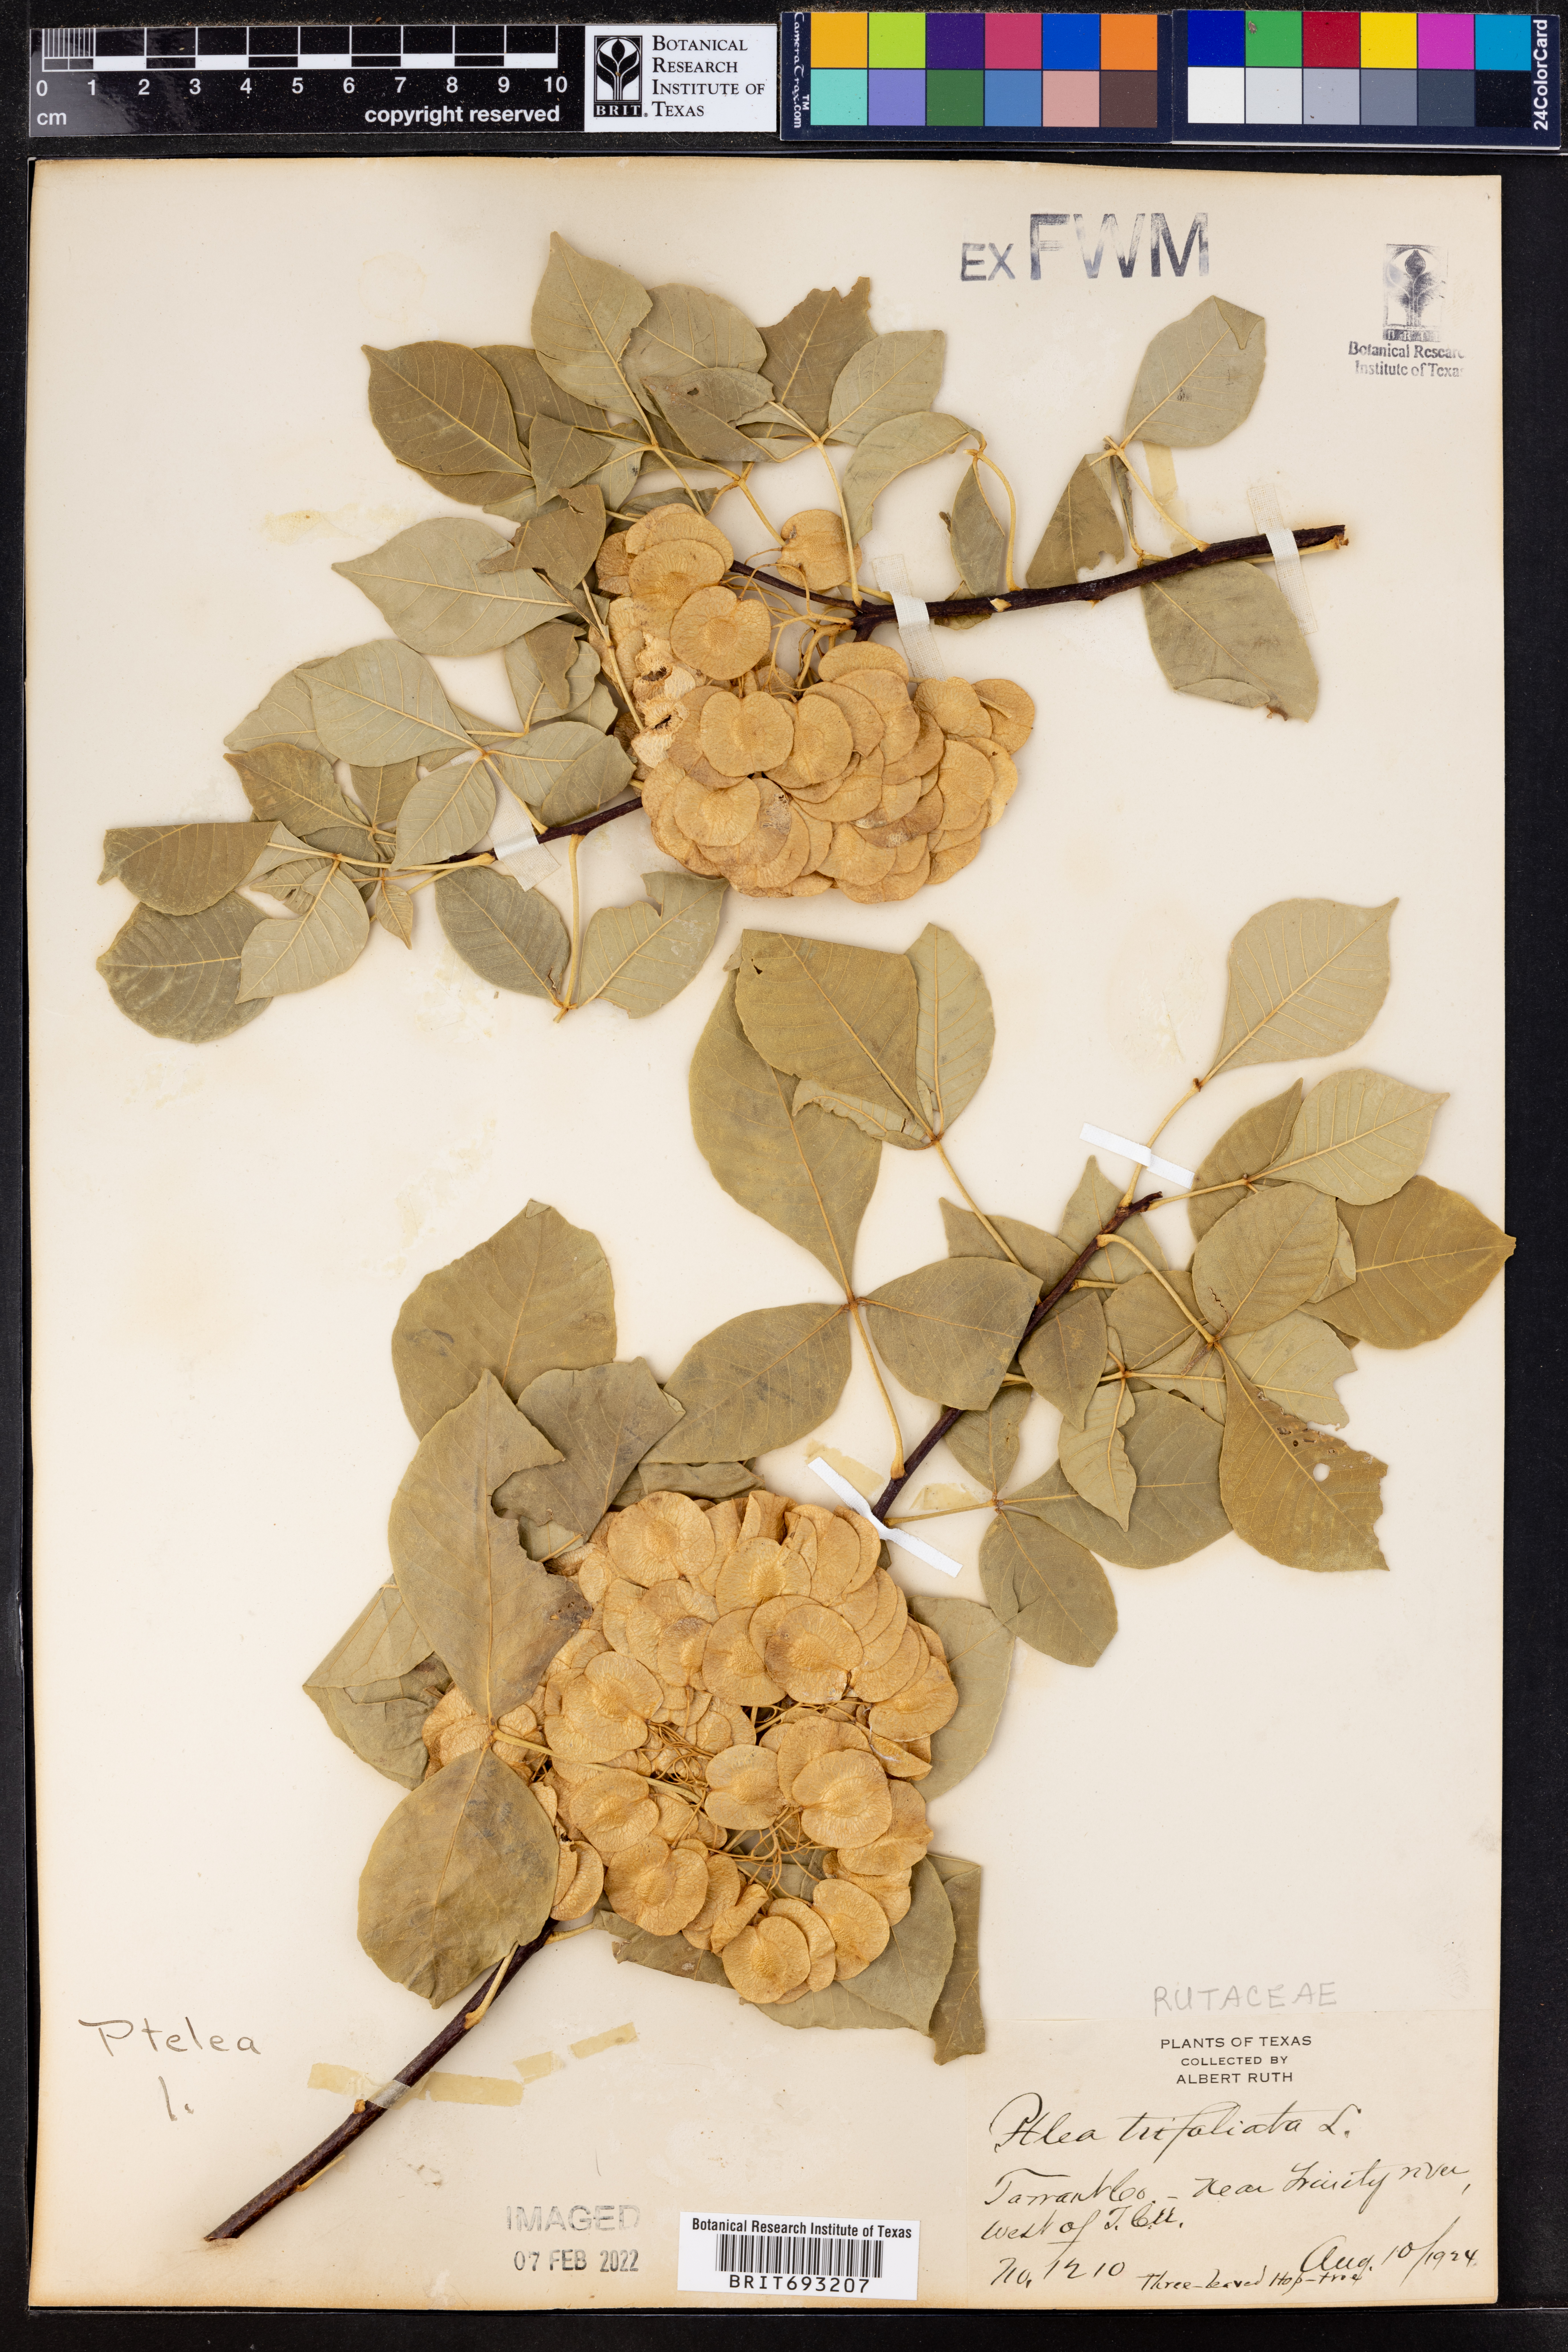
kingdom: Plantae
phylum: Tracheophyta
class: Magnoliopsida
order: Sapindales
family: Rutaceae
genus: Ptelea
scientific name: Ptelea trifoliata
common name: Common hop-tree
